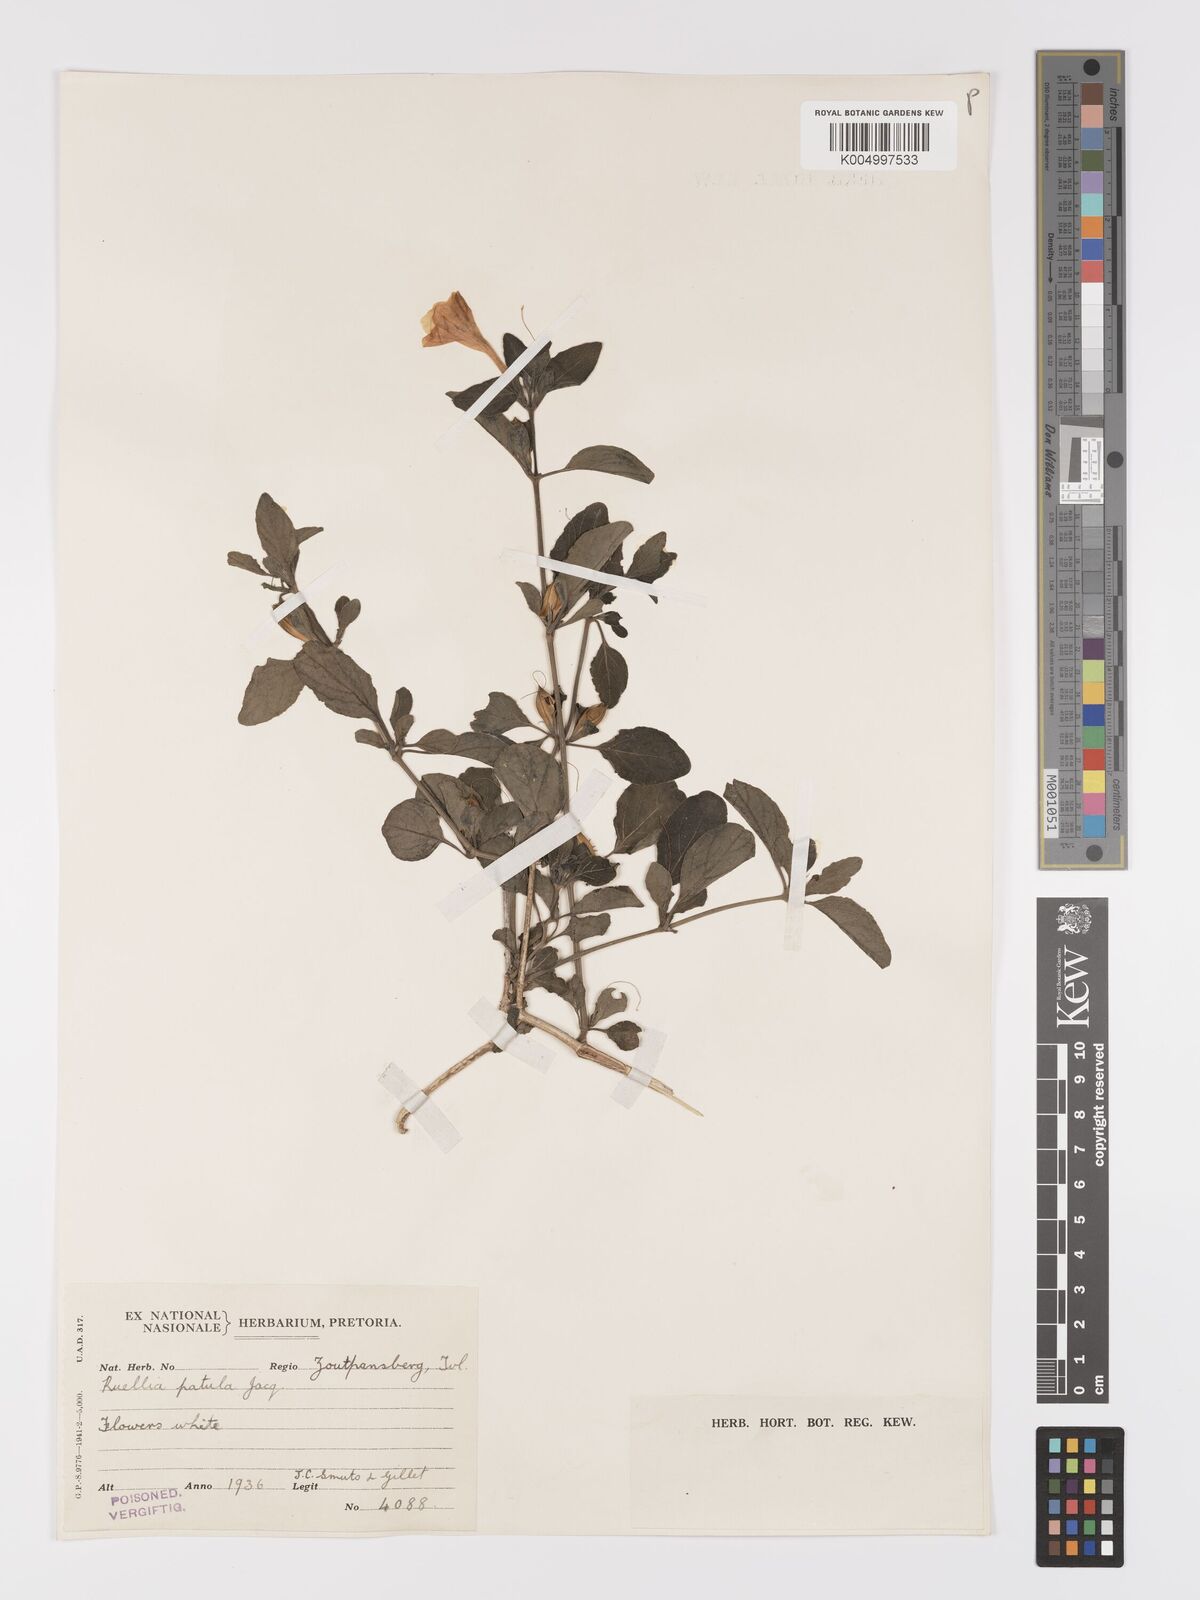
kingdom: Plantae
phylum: Tracheophyta
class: Magnoliopsida
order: Lamiales
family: Acanthaceae
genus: Ruellia
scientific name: Ruellia patula
